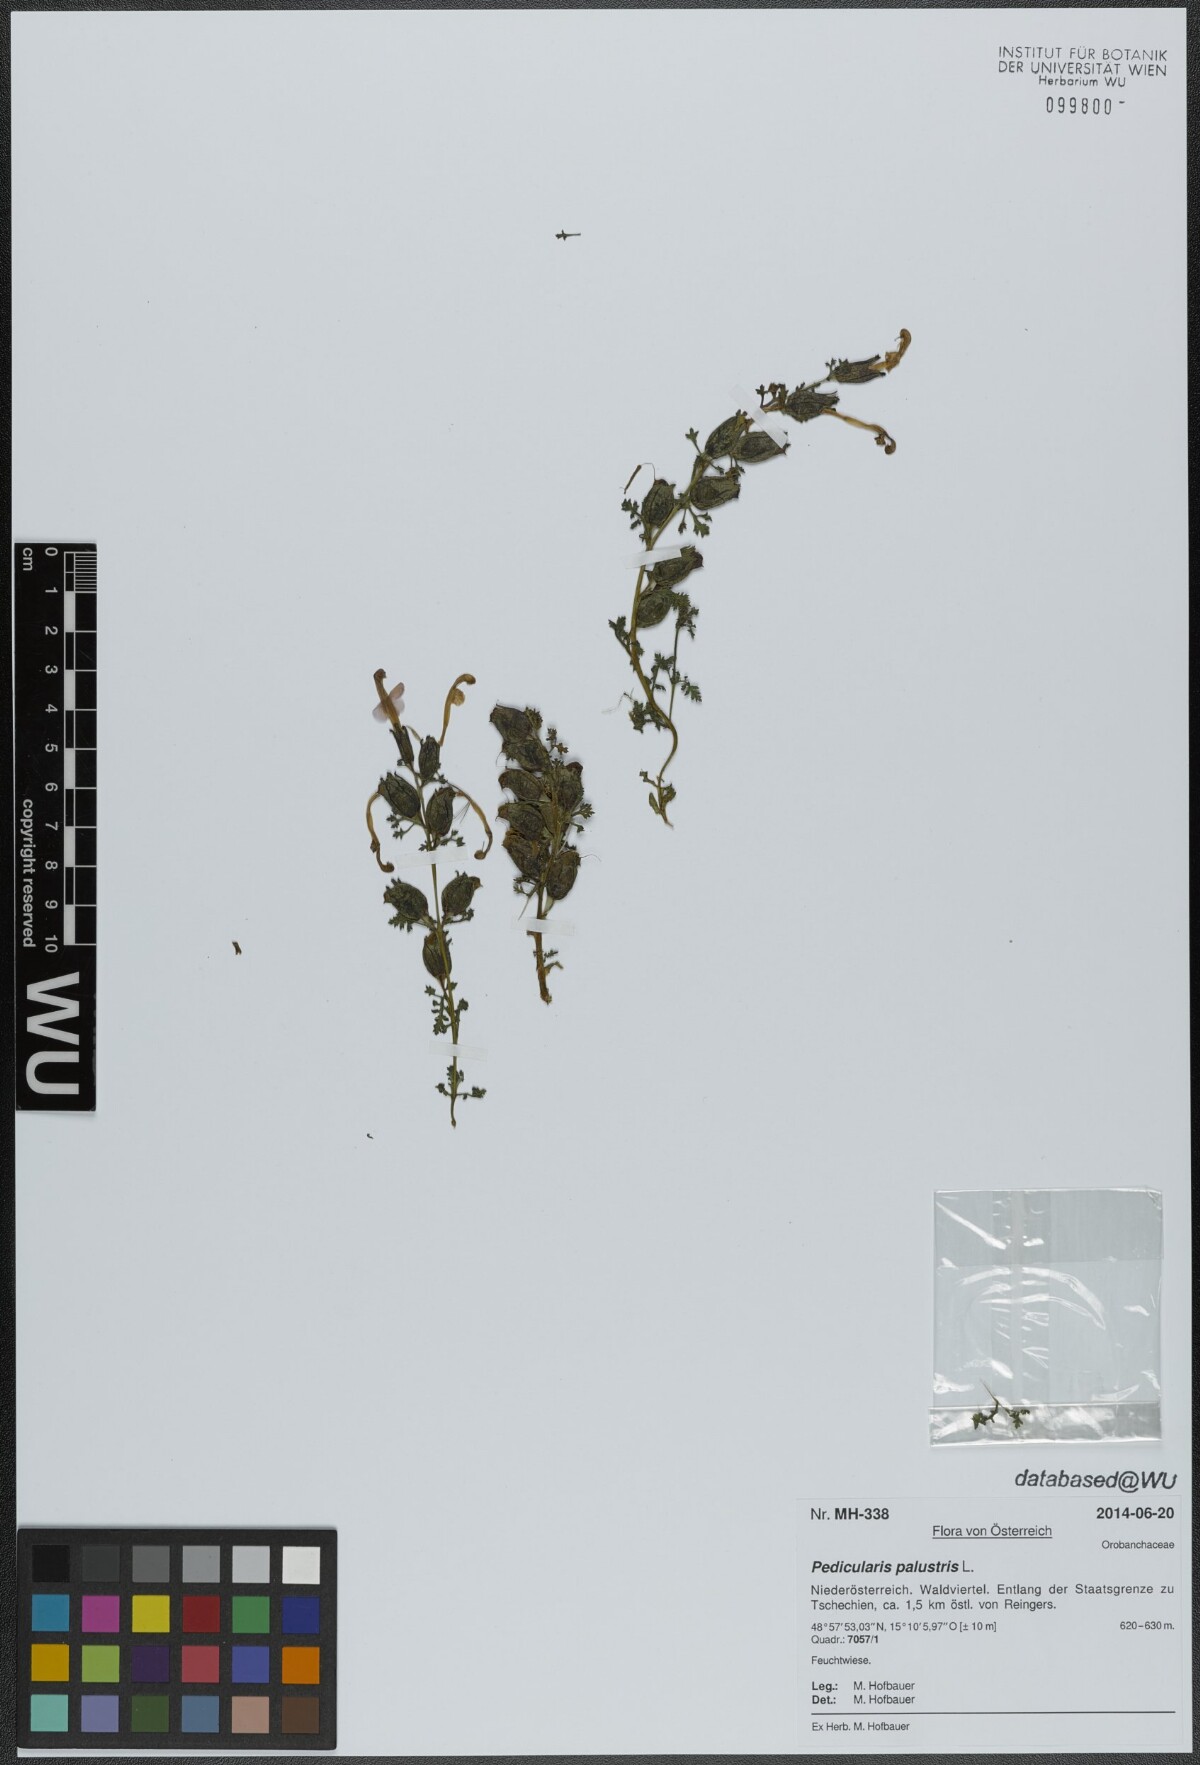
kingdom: Plantae
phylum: Tracheophyta
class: Magnoliopsida
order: Lamiales
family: Orobanchaceae
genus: Pedicularis
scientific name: Pedicularis palustris
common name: Marsh lousewort
